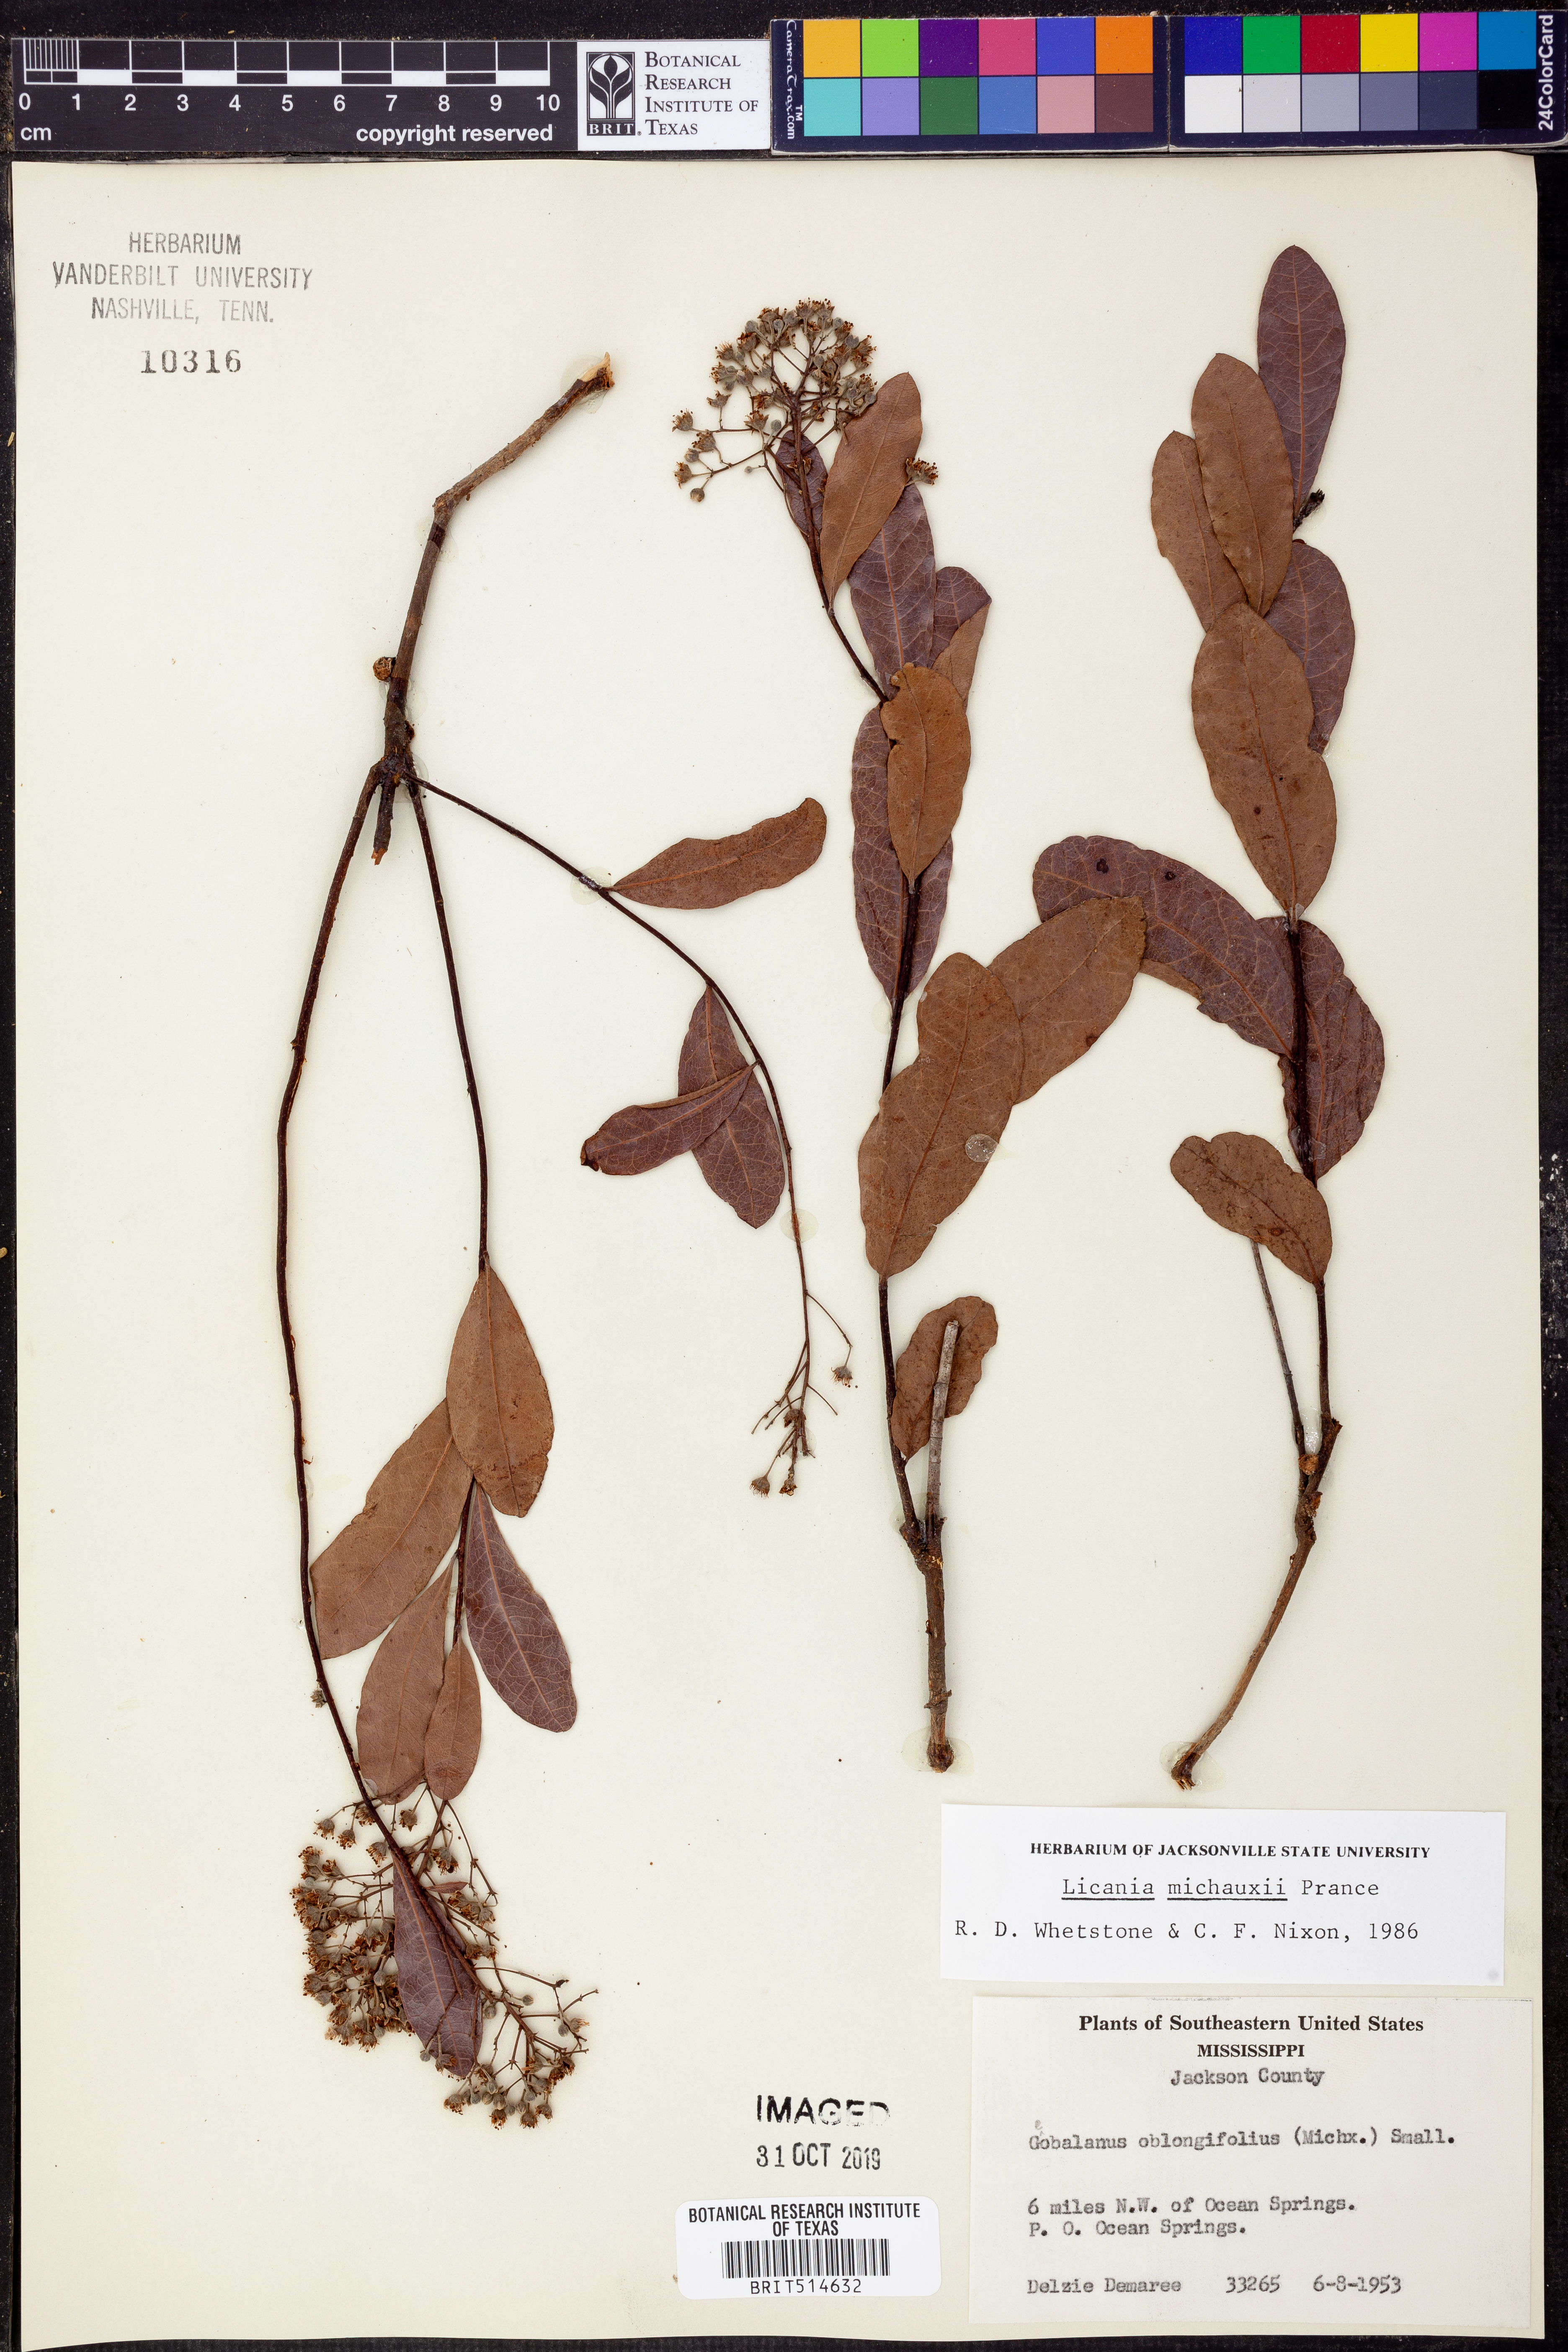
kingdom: Plantae
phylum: Tracheophyta
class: Magnoliopsida
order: Malpighiales
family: Chrysobalanaceae
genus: Geobalanus
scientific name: Geobalanus oblongifolius
